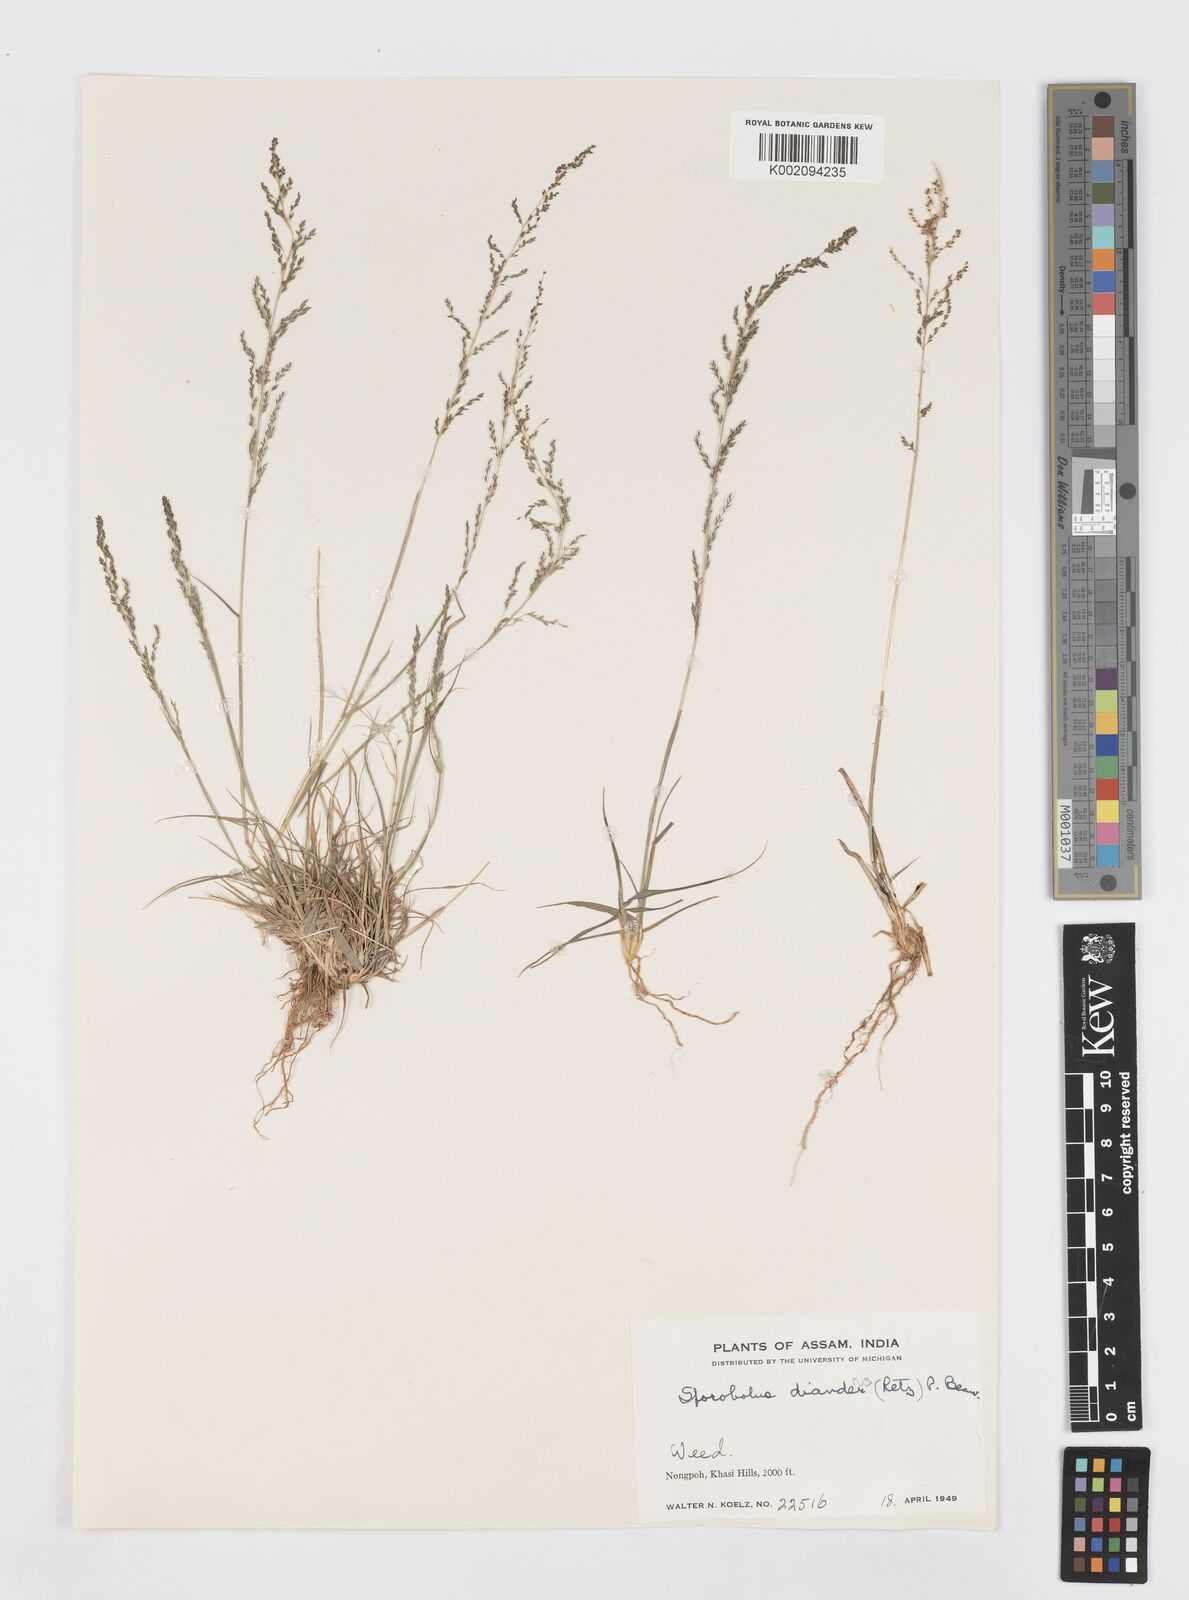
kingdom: Plantae
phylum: Tracheophyta
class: Liliopsida
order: Poales
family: Poaceae
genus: Sporobolus
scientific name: Sporobolus diandrus
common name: Tussock dropseed
